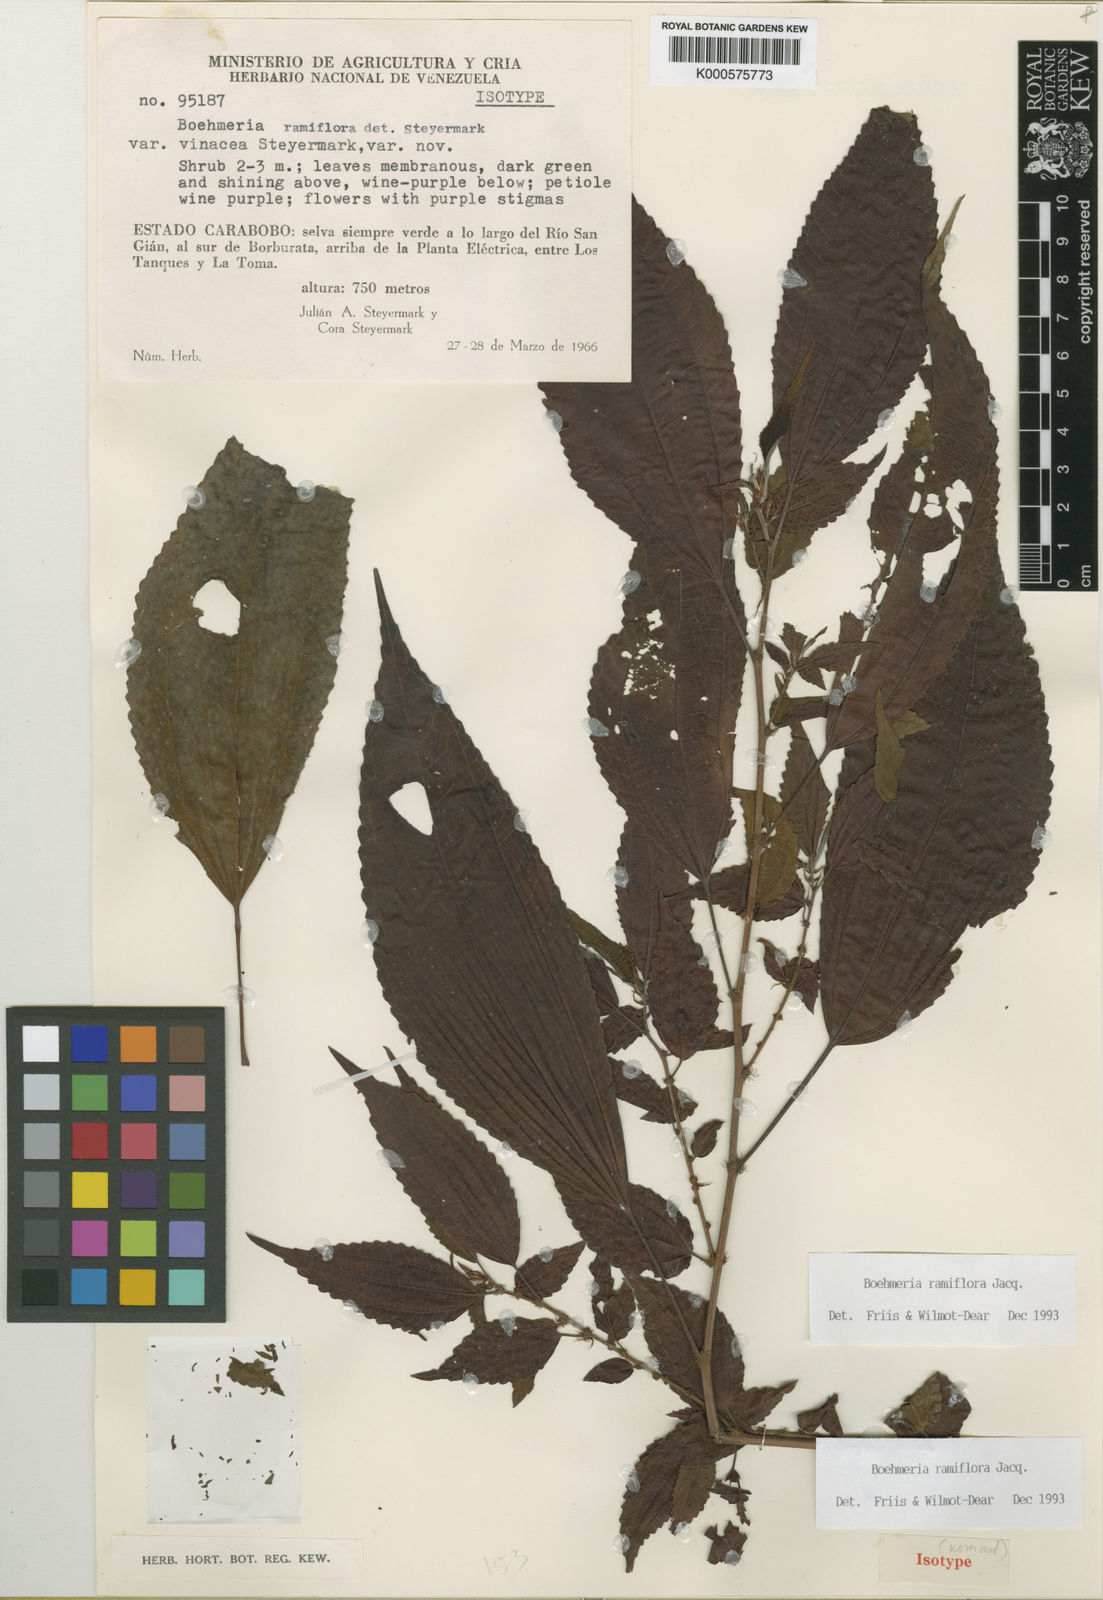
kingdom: Plantae
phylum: Tracheophyta
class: Magnoliopsida
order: Rosales
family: Urticaceae
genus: Boehmeria
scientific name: Boehmeria ramiflora
